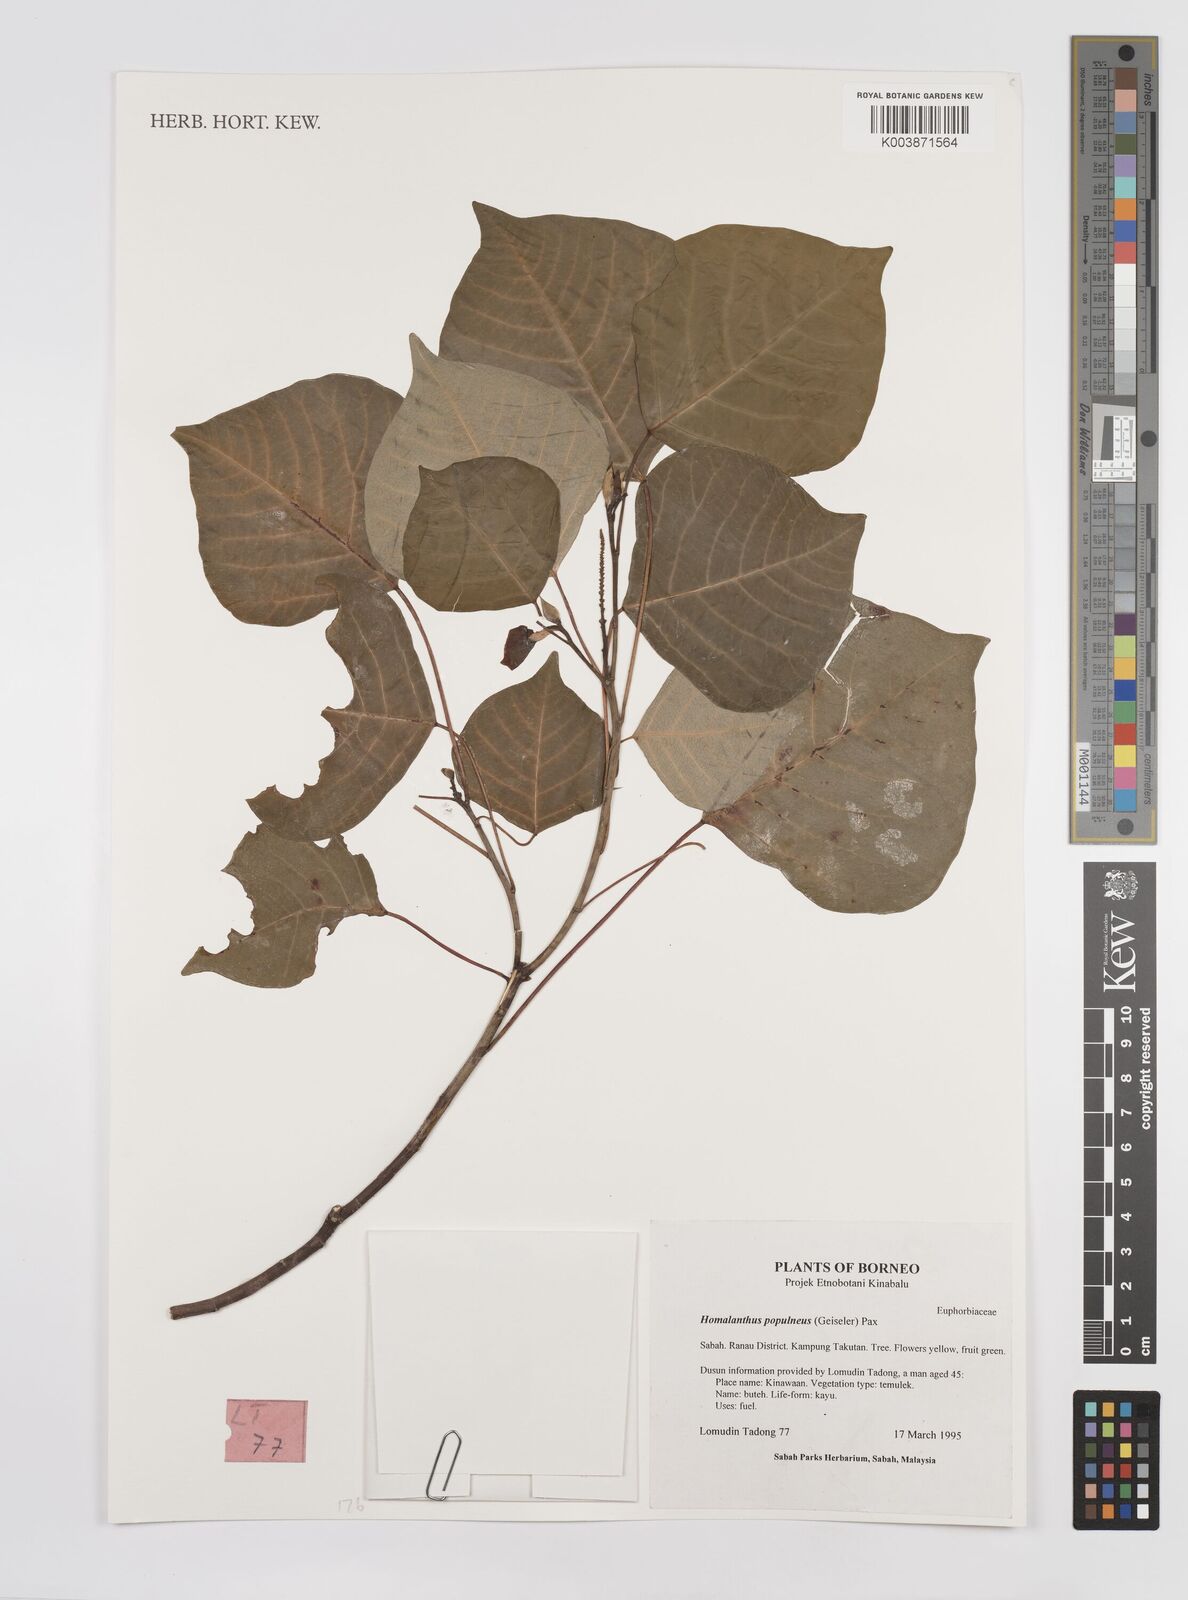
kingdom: Plantae
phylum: Tracheophyta
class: Magnoliopsida
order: Malpighiales
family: Euphorbiaceae
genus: Homalanthus
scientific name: Homalanthus populneus
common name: Spurge
